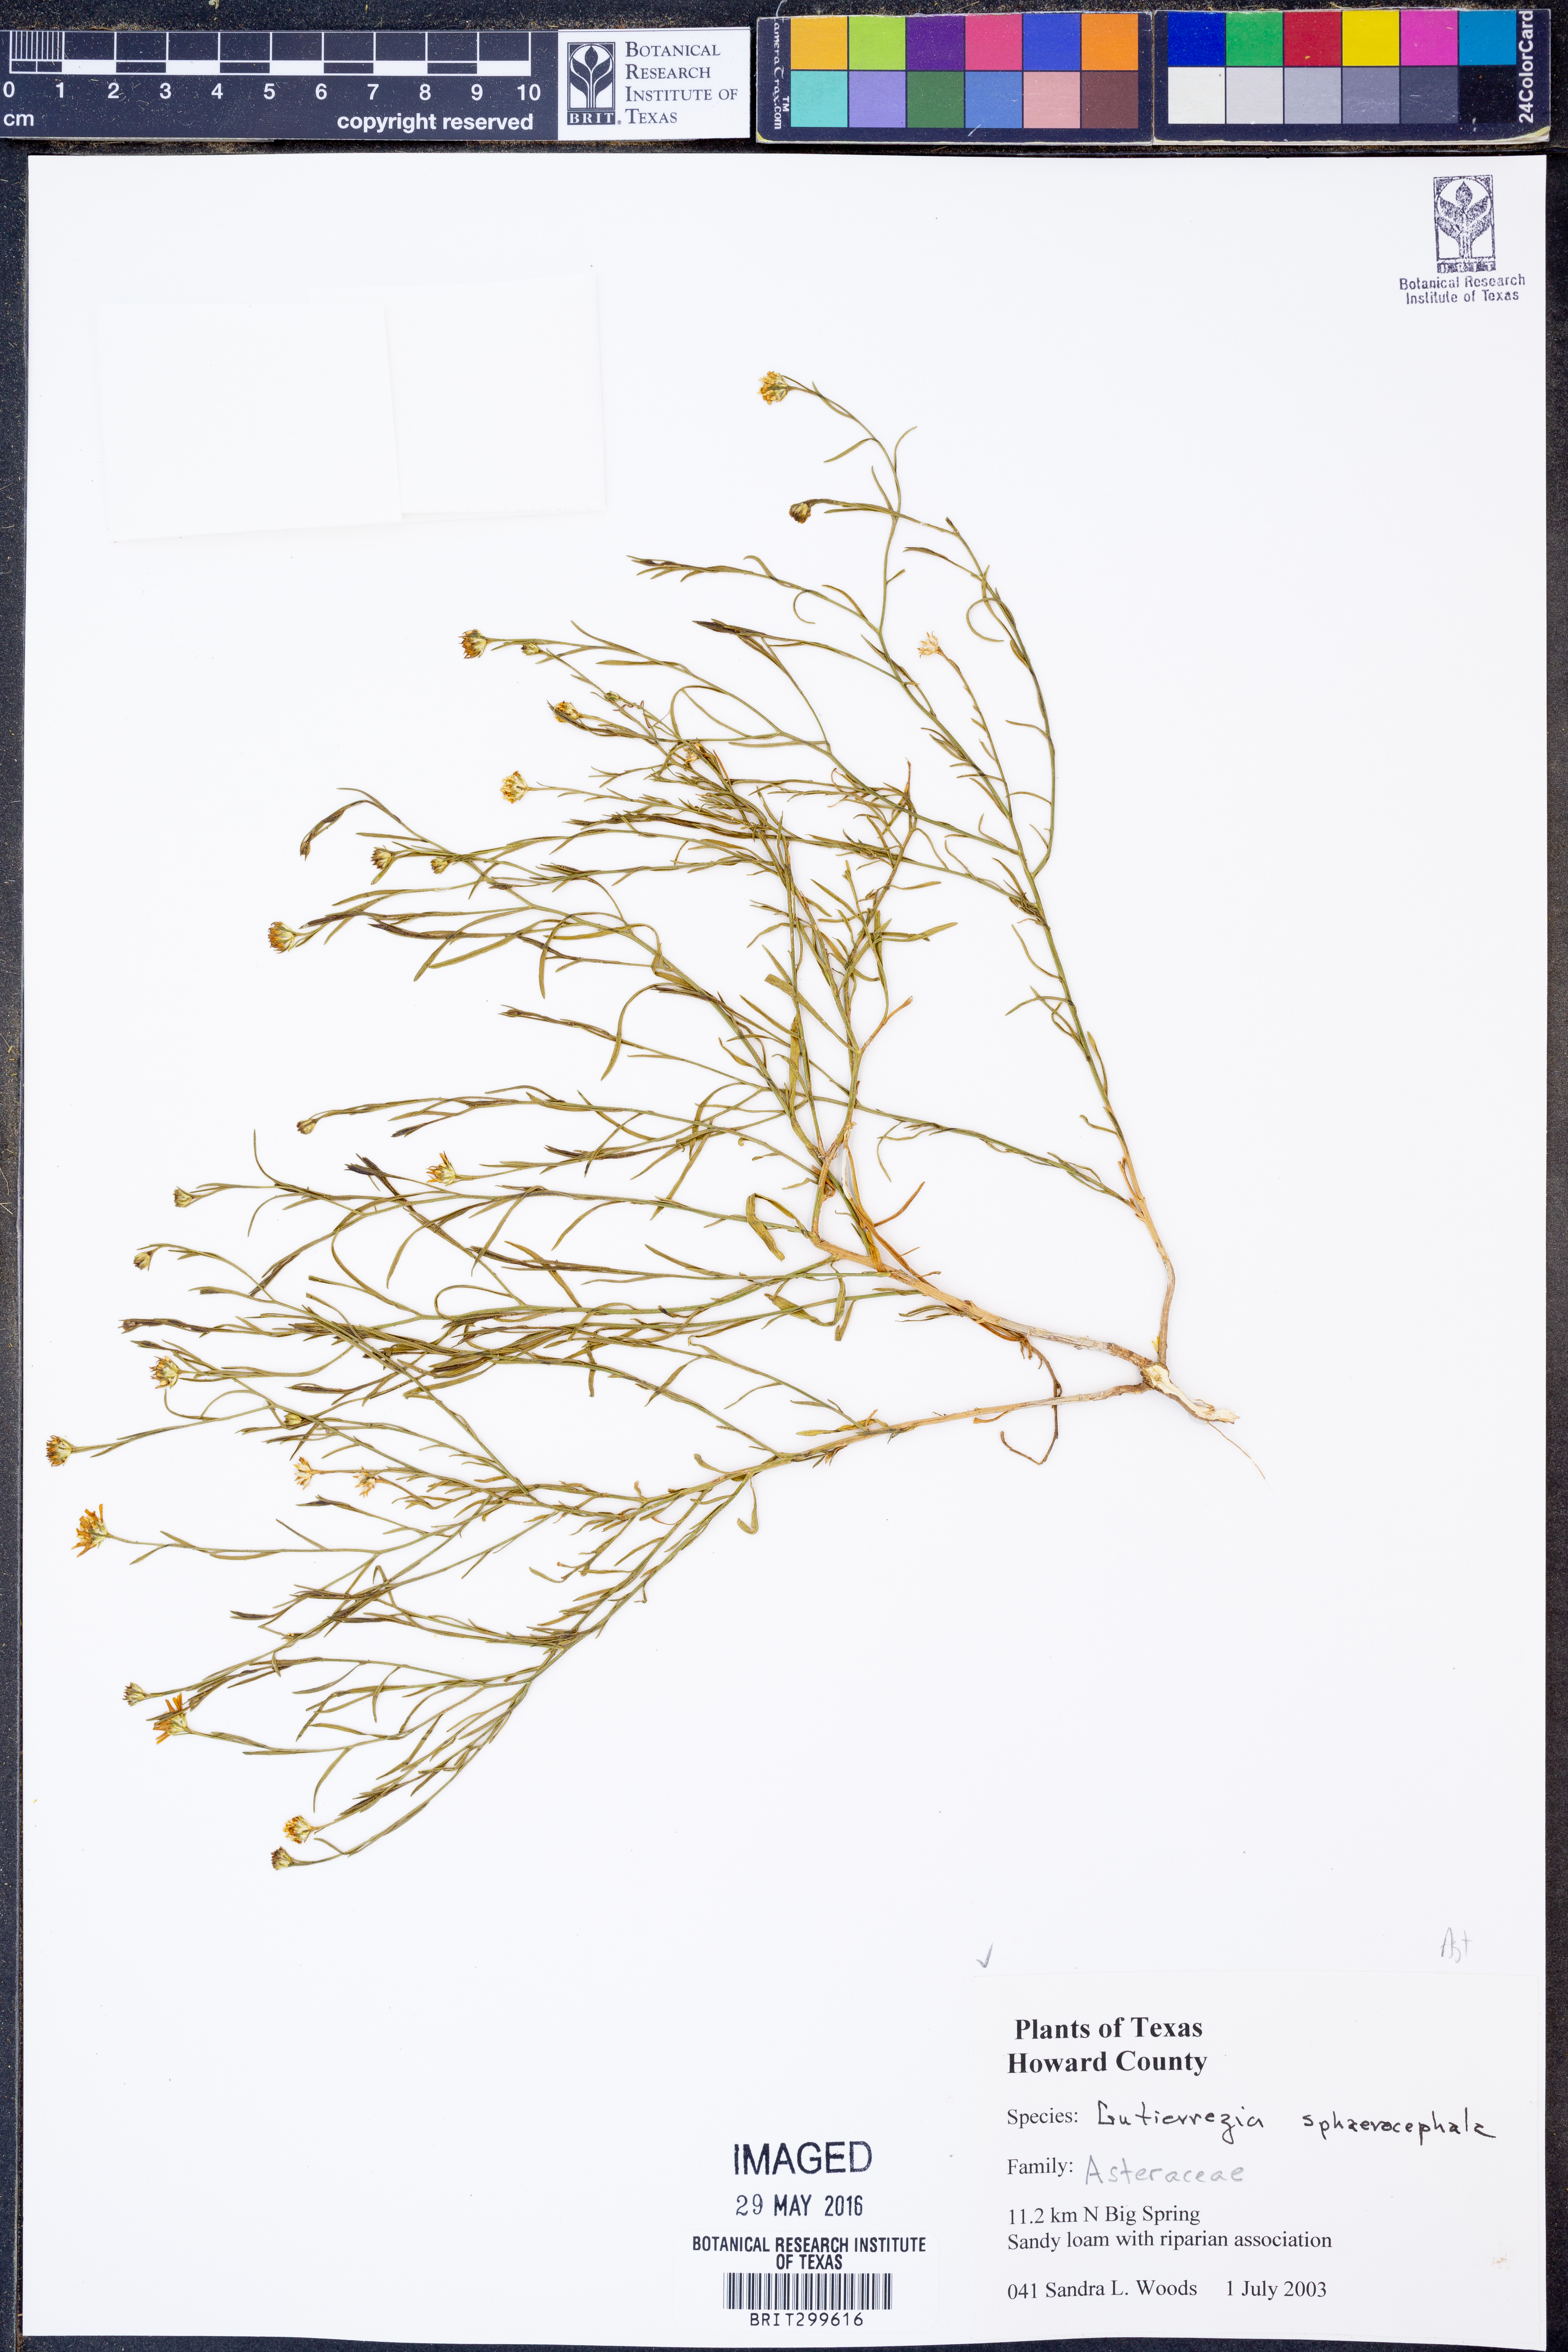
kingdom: Plantae
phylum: Tracheophyta
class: Magnoliopsida
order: Asterales
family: Asteraceae
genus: Gutierrezia
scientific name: Gutierrezia sphaerocephala
